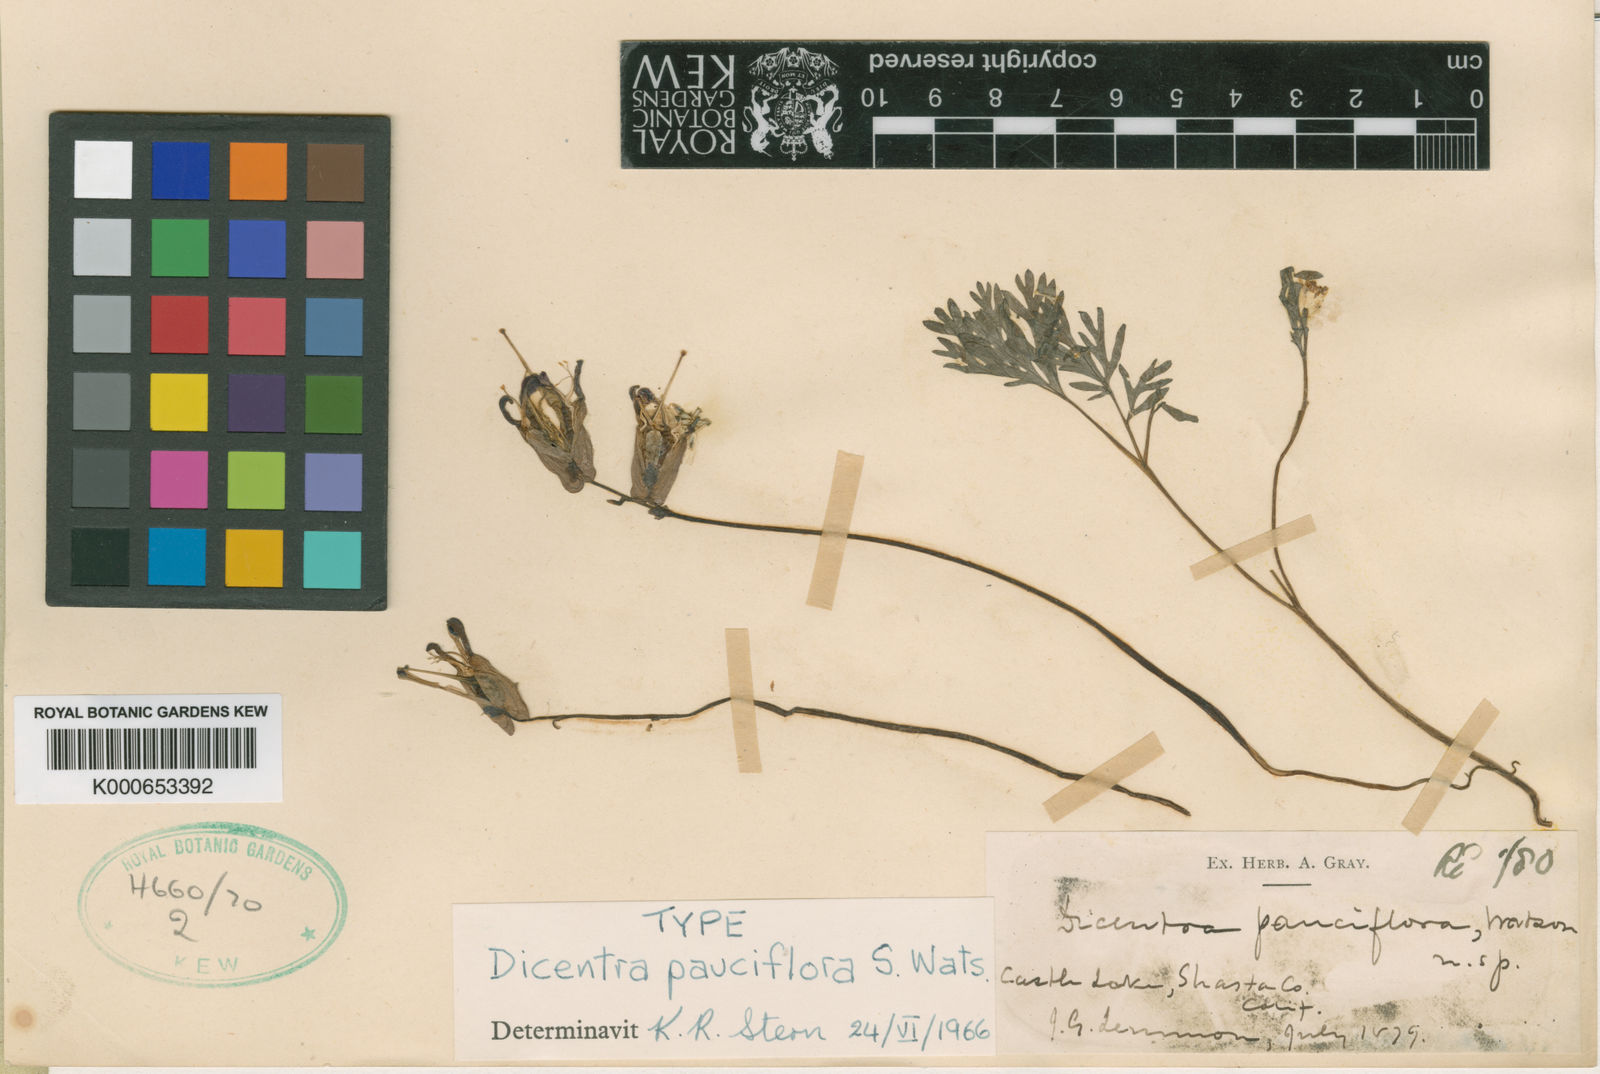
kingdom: Plantae
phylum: Tracheophyta
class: Magnoliopsida
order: Ranunculales
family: Papaveraceae
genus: Dicentra
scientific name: Dicentra pauciflora
